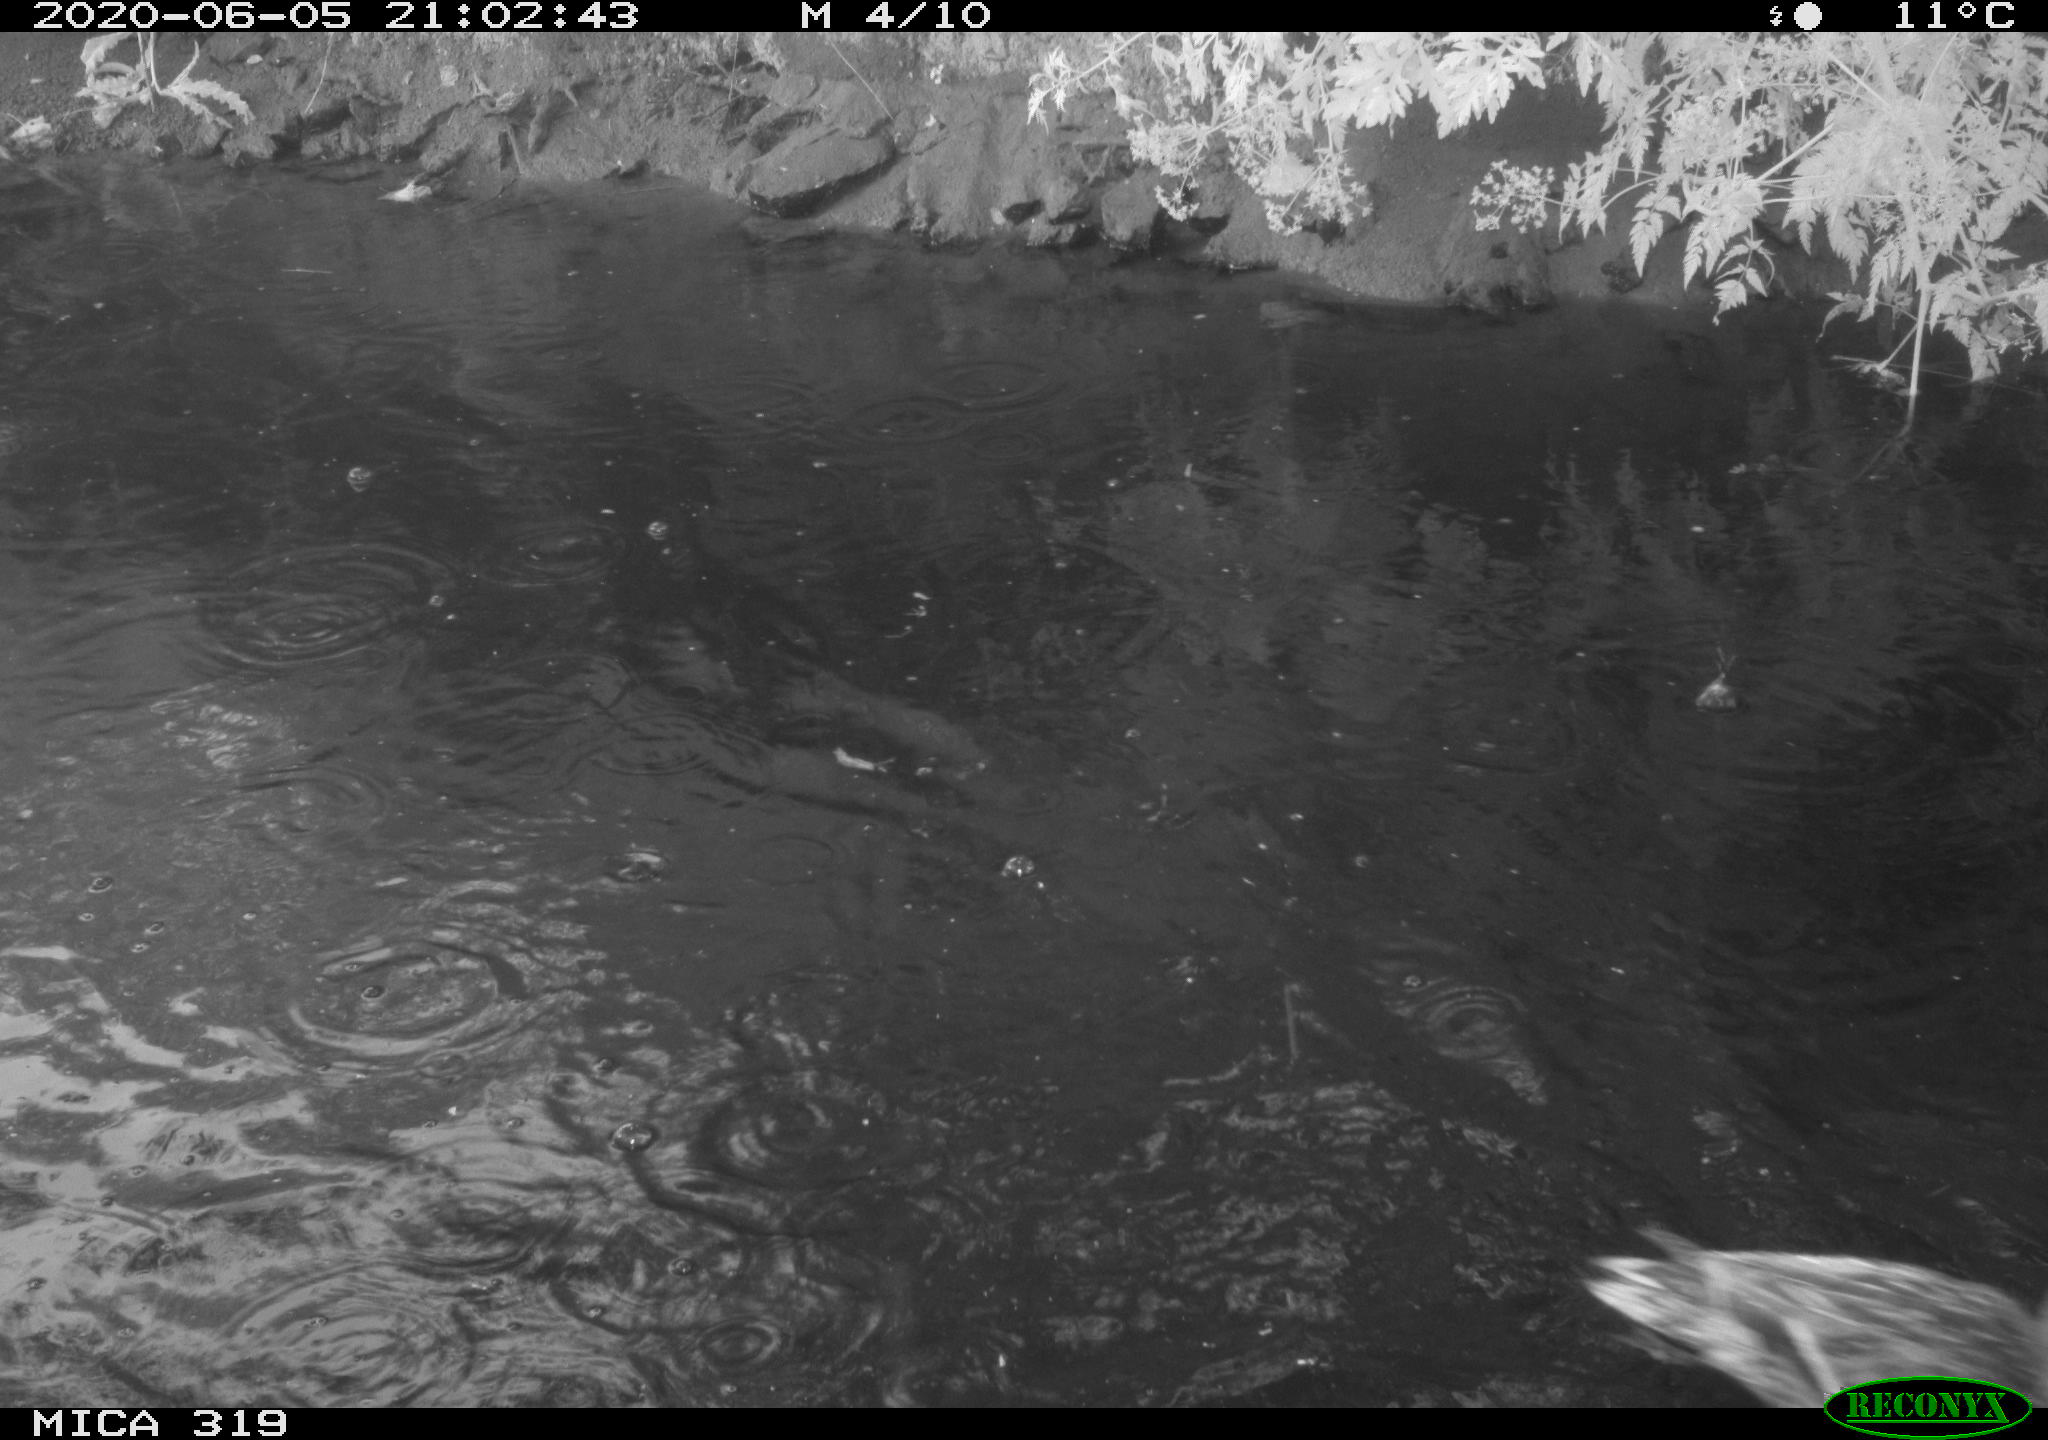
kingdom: Animalia
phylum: Chordata
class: Aves
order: Anseriformes
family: Anatidae
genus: Anas
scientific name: Anas platyrhynchos
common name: Mallard
